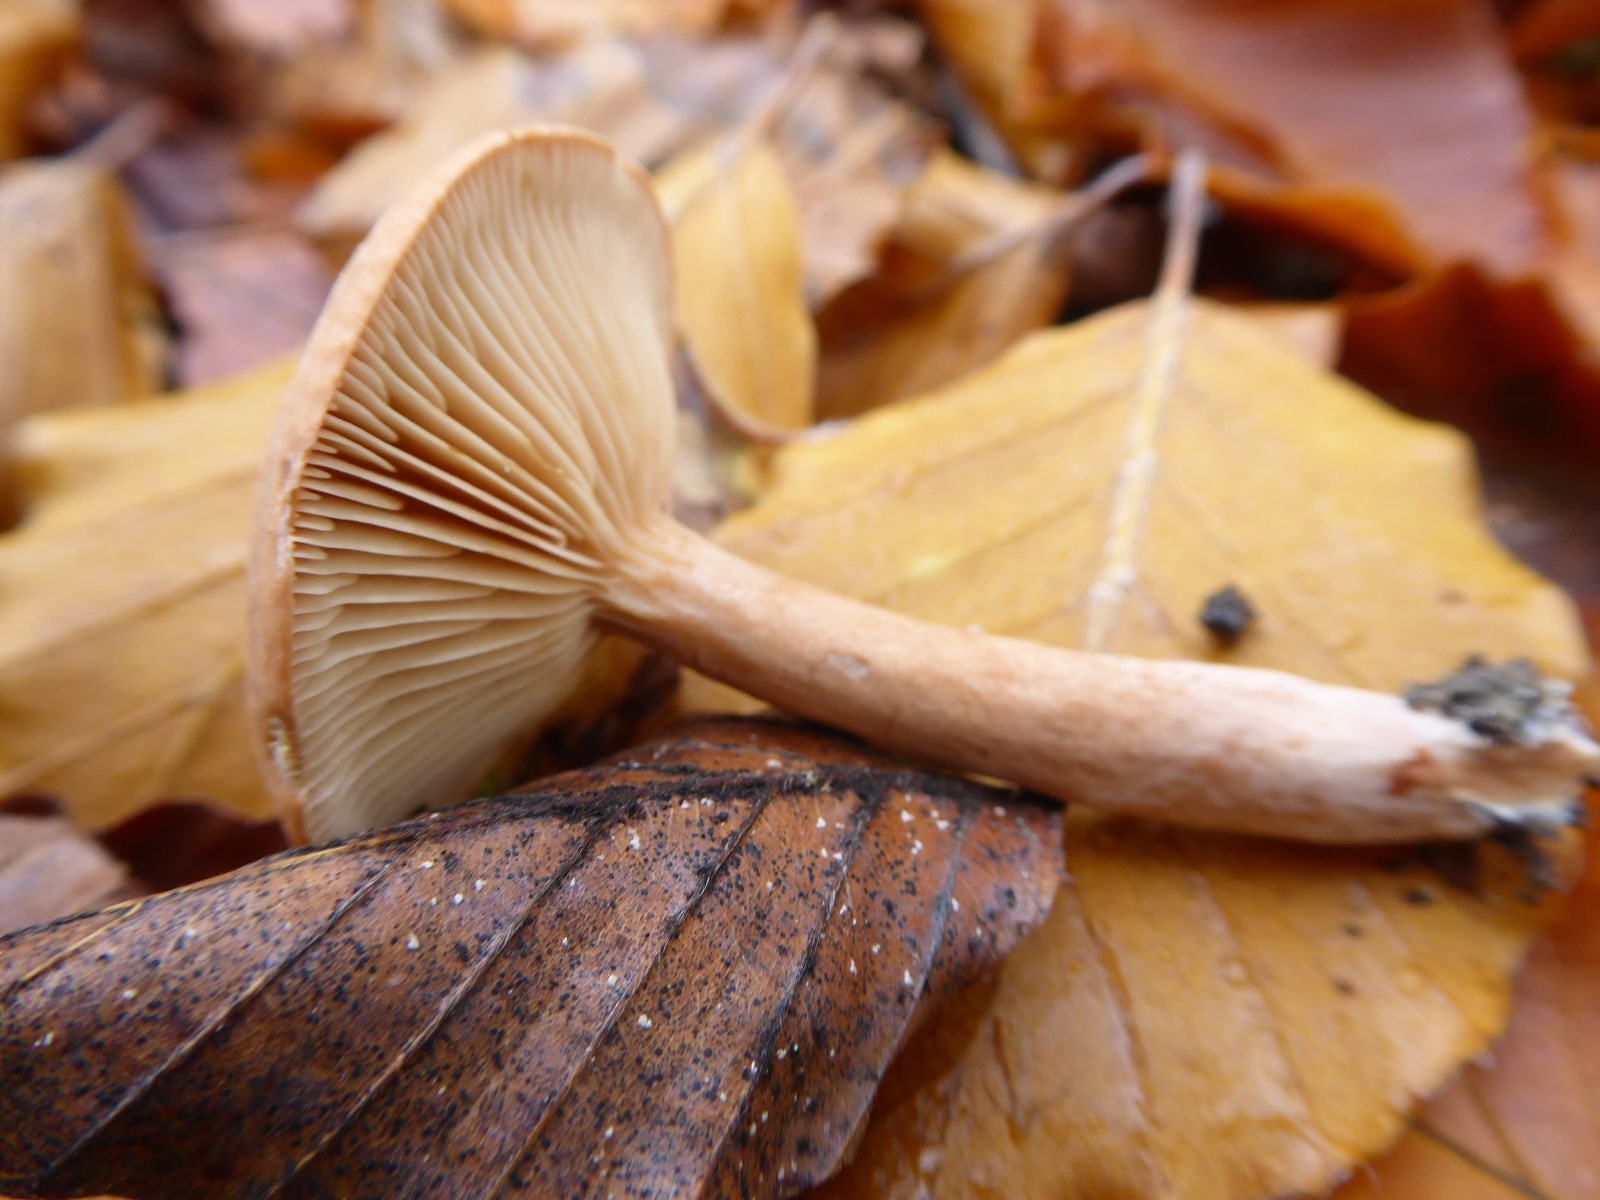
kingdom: Fungi
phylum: Basidiomycota
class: Agaricomycetes
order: Russulales
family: Russulaceae
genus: Lactarius
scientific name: Lactarius tabidus
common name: rynket mælkehat
